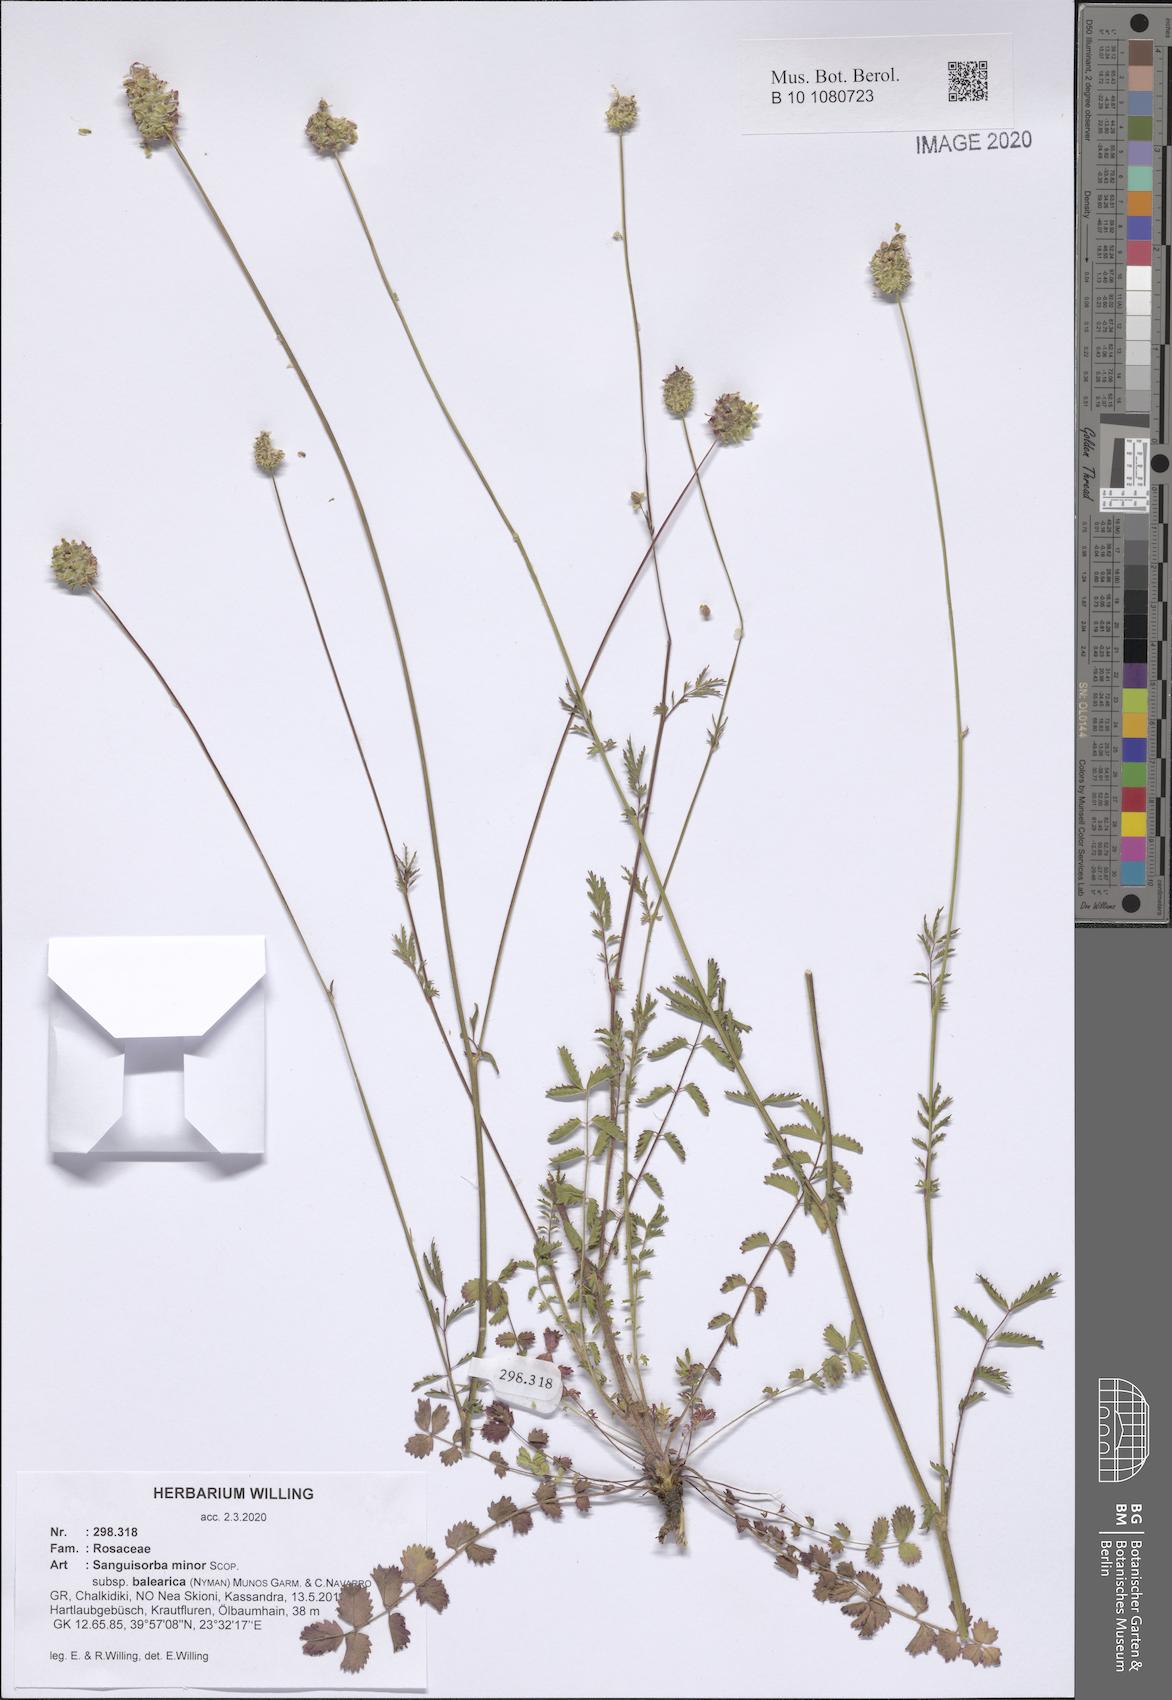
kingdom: Plantae
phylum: Tracheophyta
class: Magnoliopsida
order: Rosales
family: Rosaceae
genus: Poterium
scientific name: Poterium sanguisorba
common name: Salad burnet
